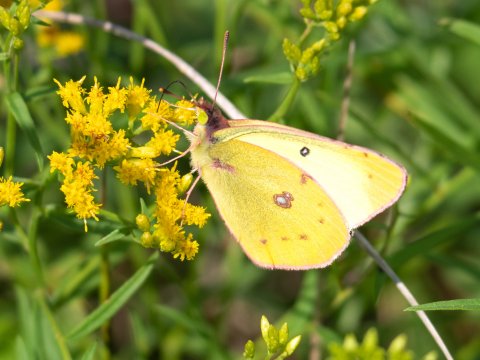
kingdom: Animalia
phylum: Arthropoda
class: Insecta
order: Lepidoptera
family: Pieridae
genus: Colias
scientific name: Colias philodice
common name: Clouded Sulphur
